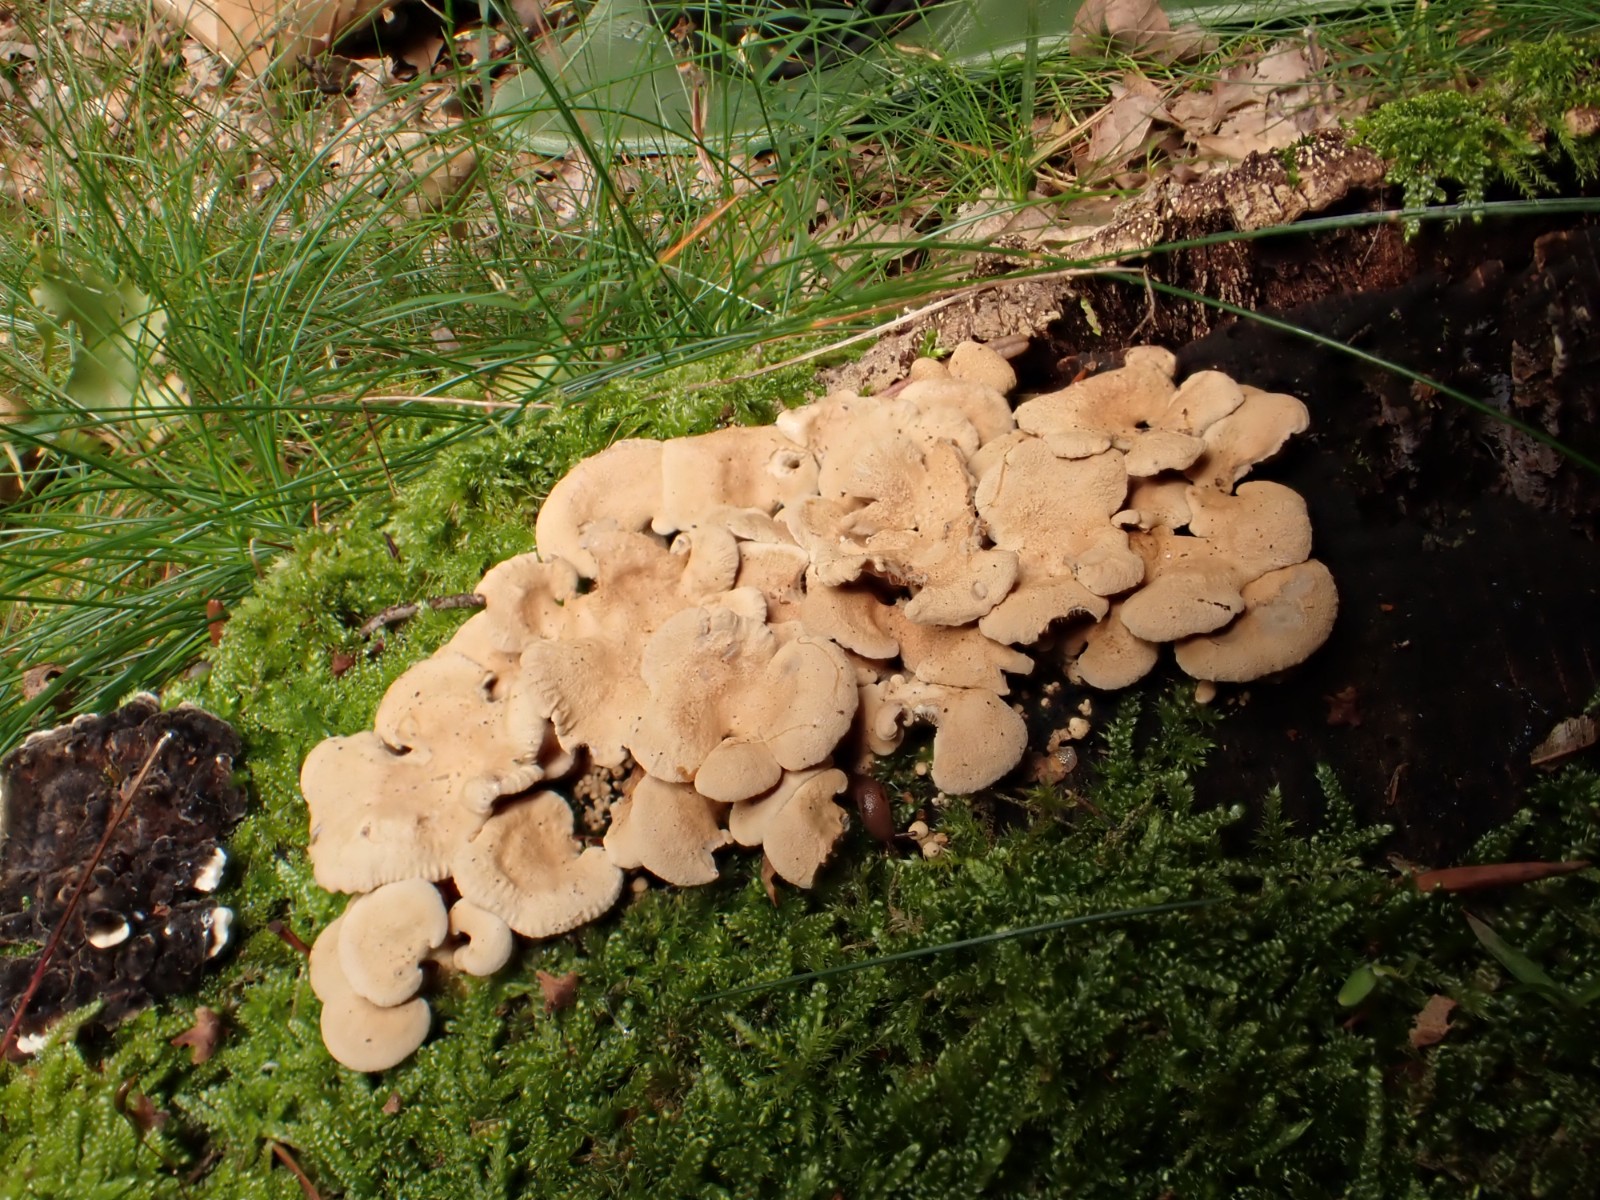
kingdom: Fungi
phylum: Basidiomycota
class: Agaricomycetes
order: Agaricales
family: Mycenaceae
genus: Panellus
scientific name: Panellus stipticus
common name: kliddet epaulethat
